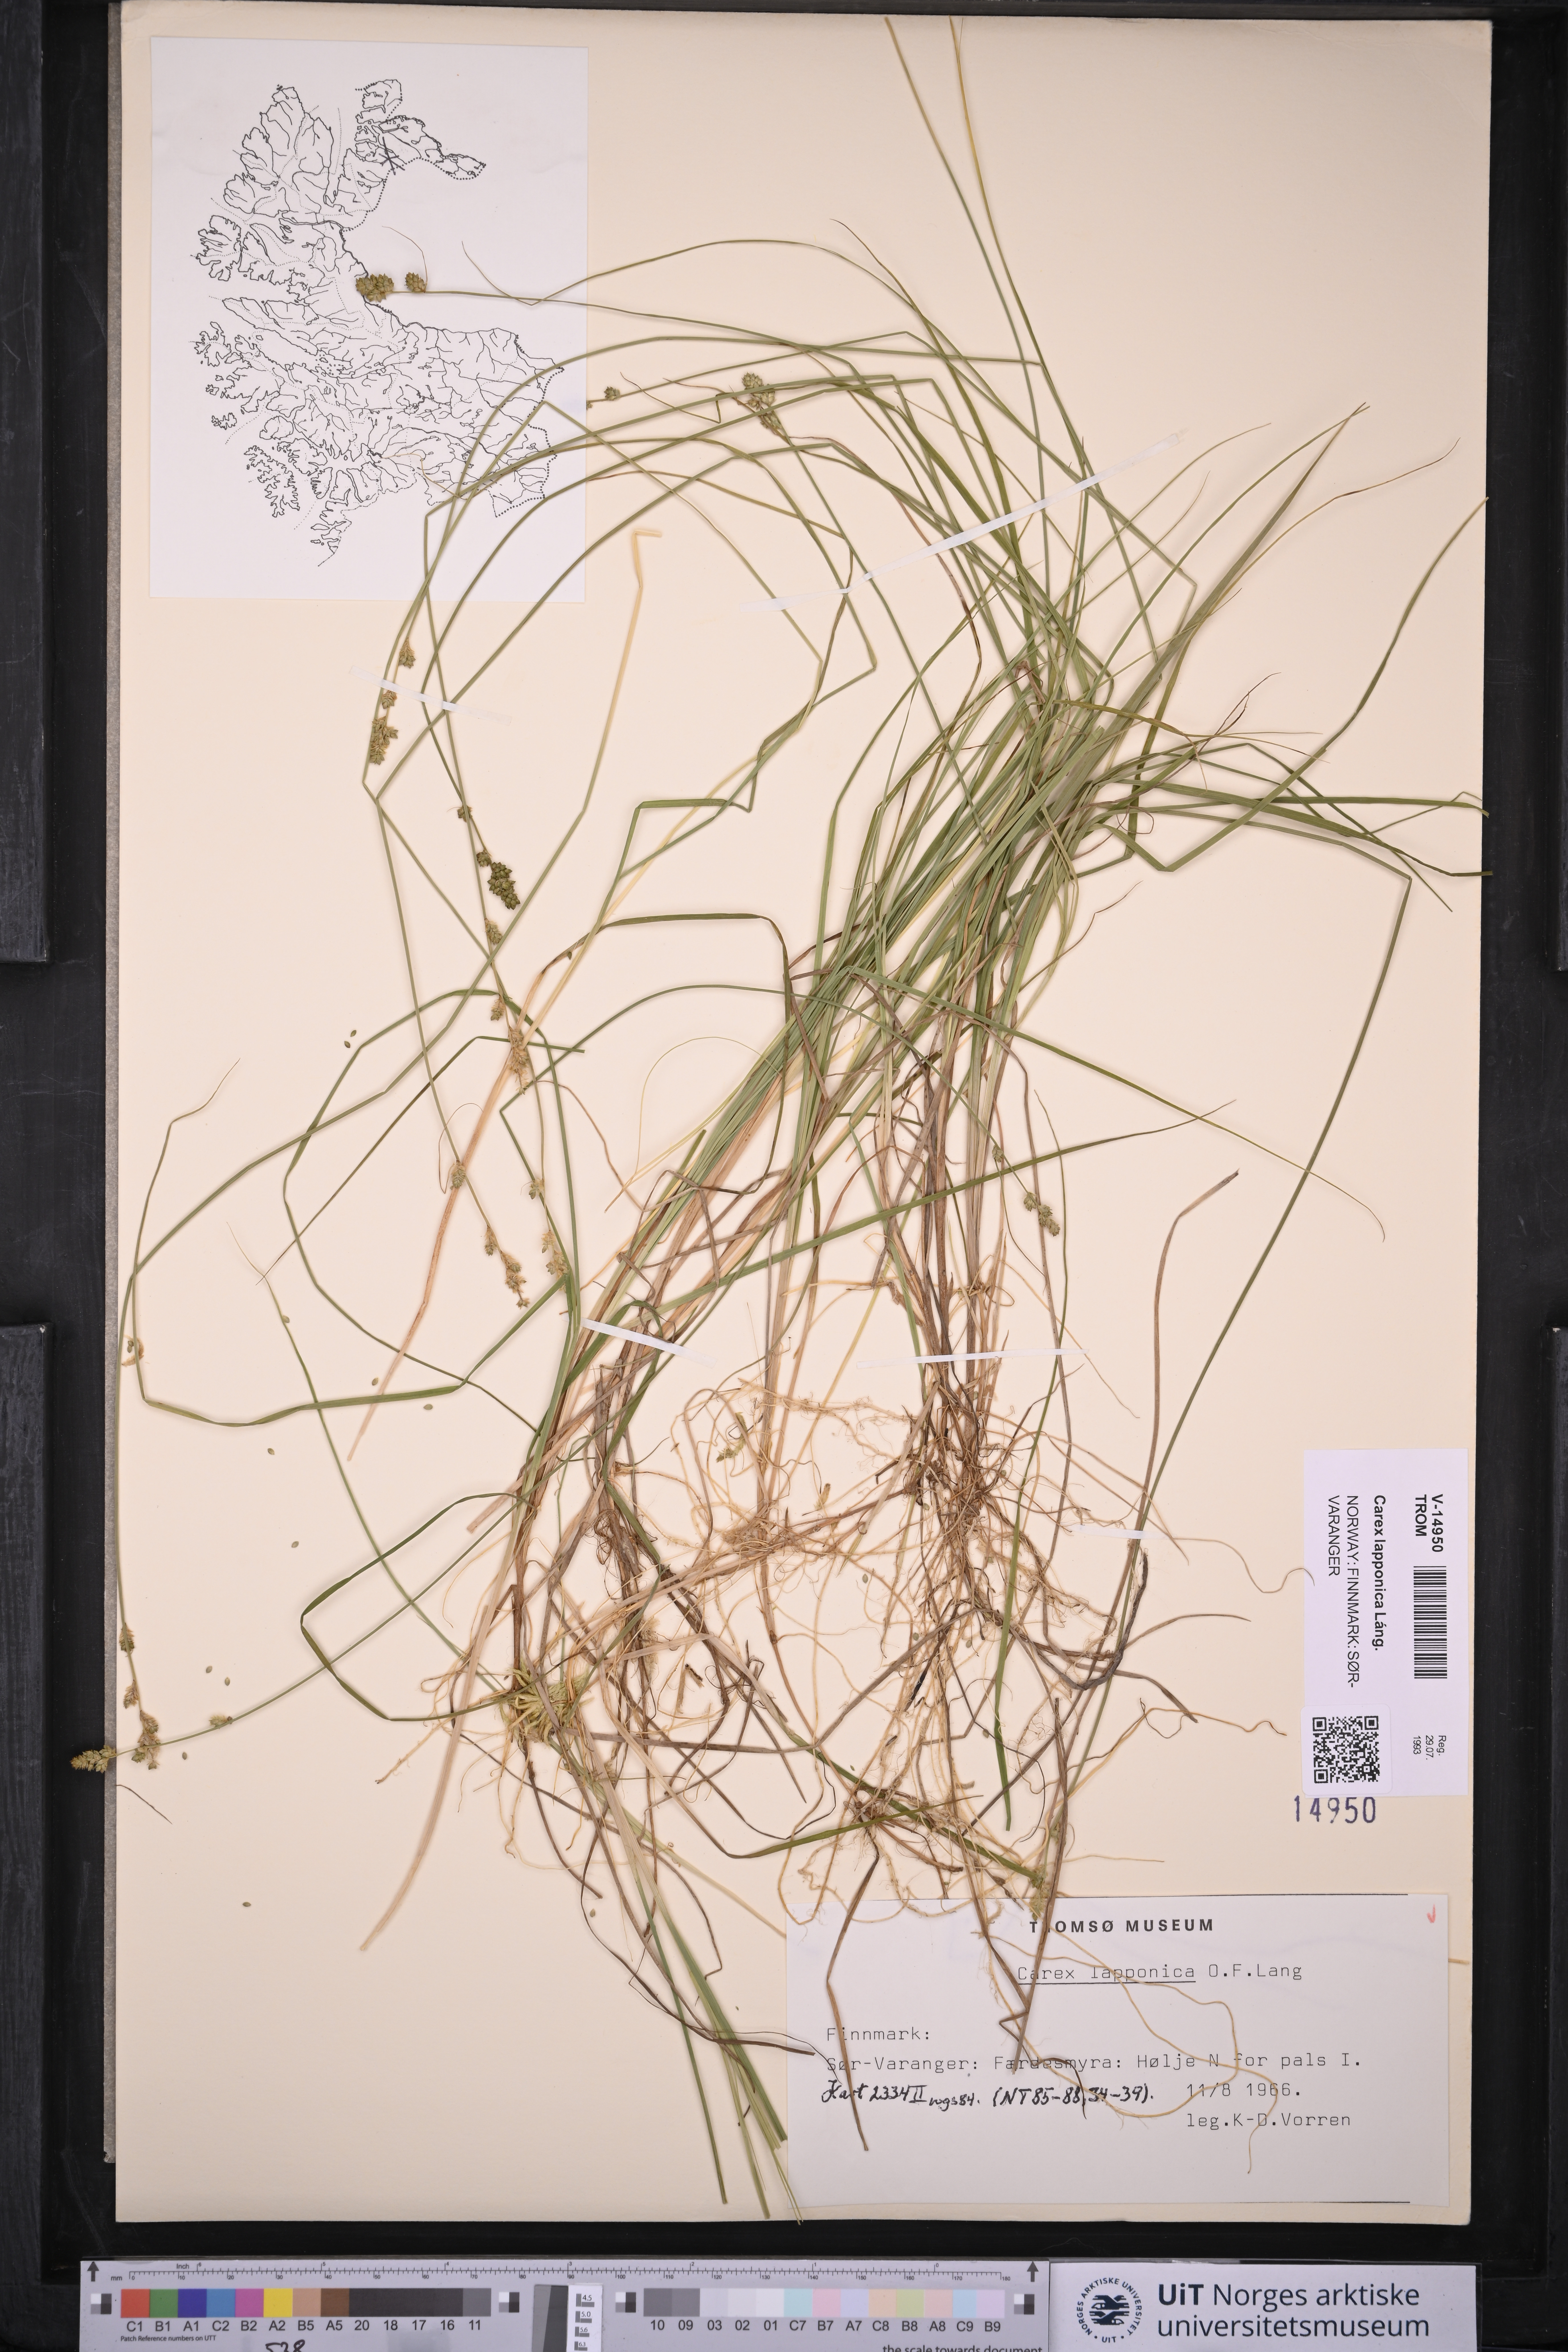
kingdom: Plantae
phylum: Tracheophyta
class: Liliopsida
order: Poales
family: Cyperaceae
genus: Carex
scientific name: Carex lapponica
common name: Lapland sedge
